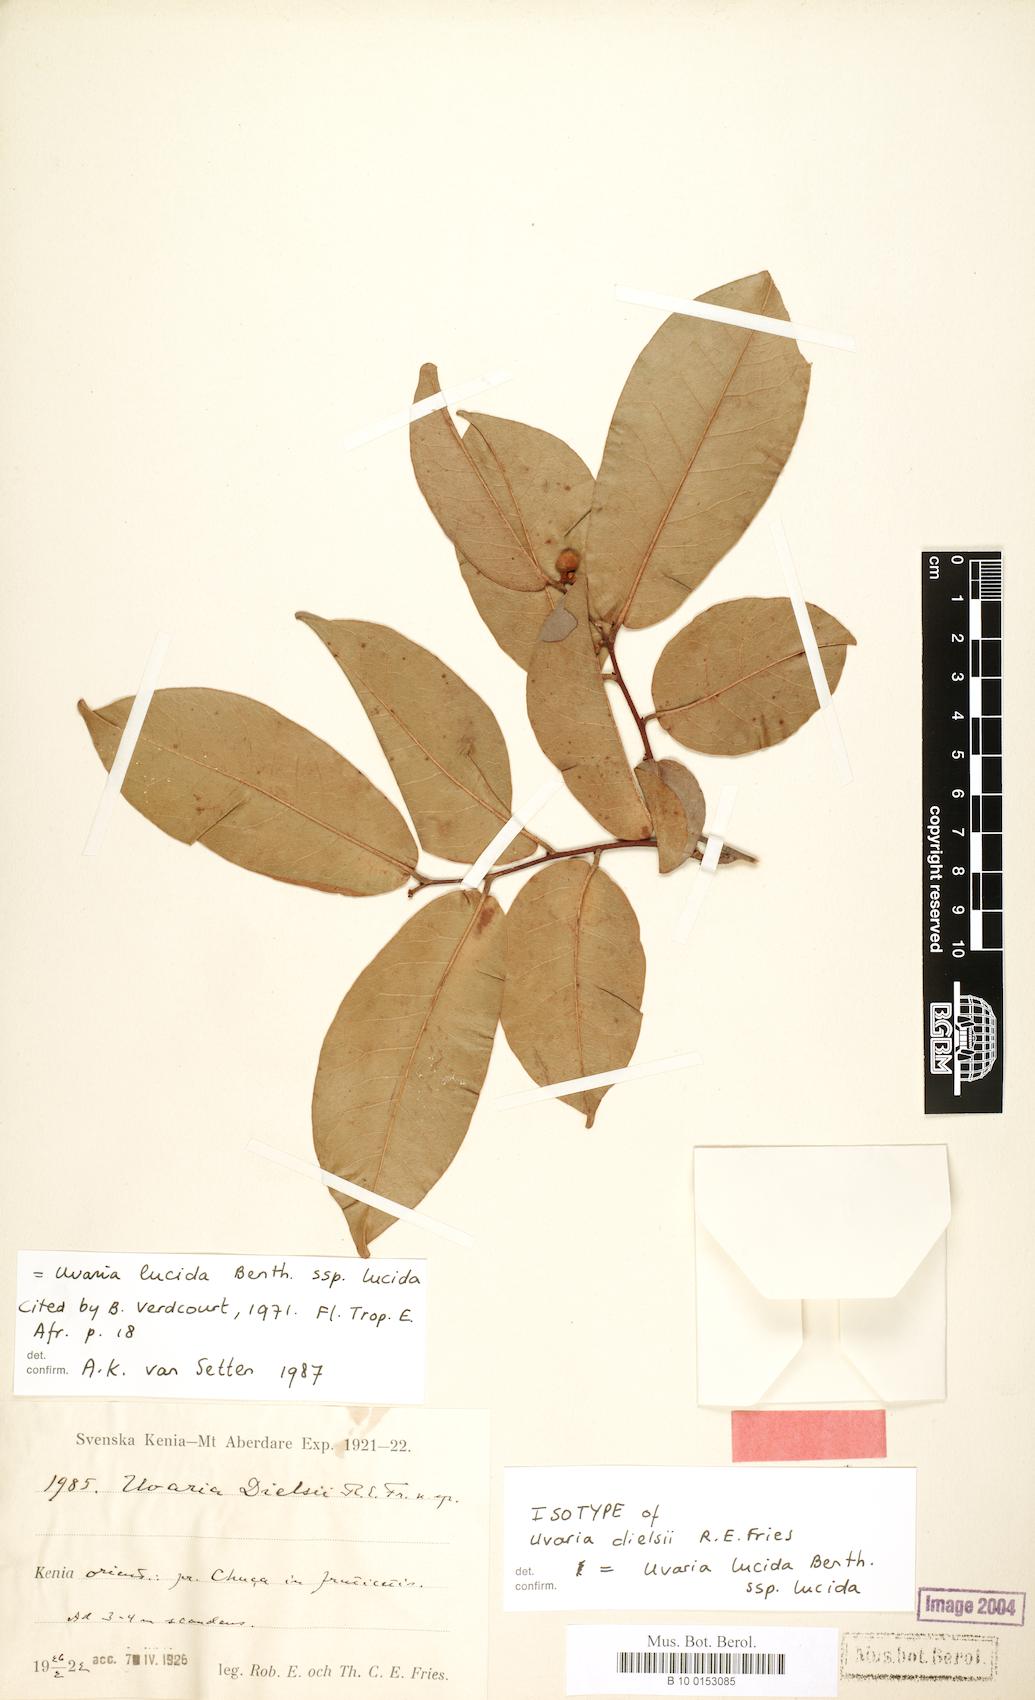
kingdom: Plantae
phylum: Tracheophyta
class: Magnoliopsida
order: Magnoliales
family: Annonaceae
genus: Uvaria
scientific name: Uvaria lucida
